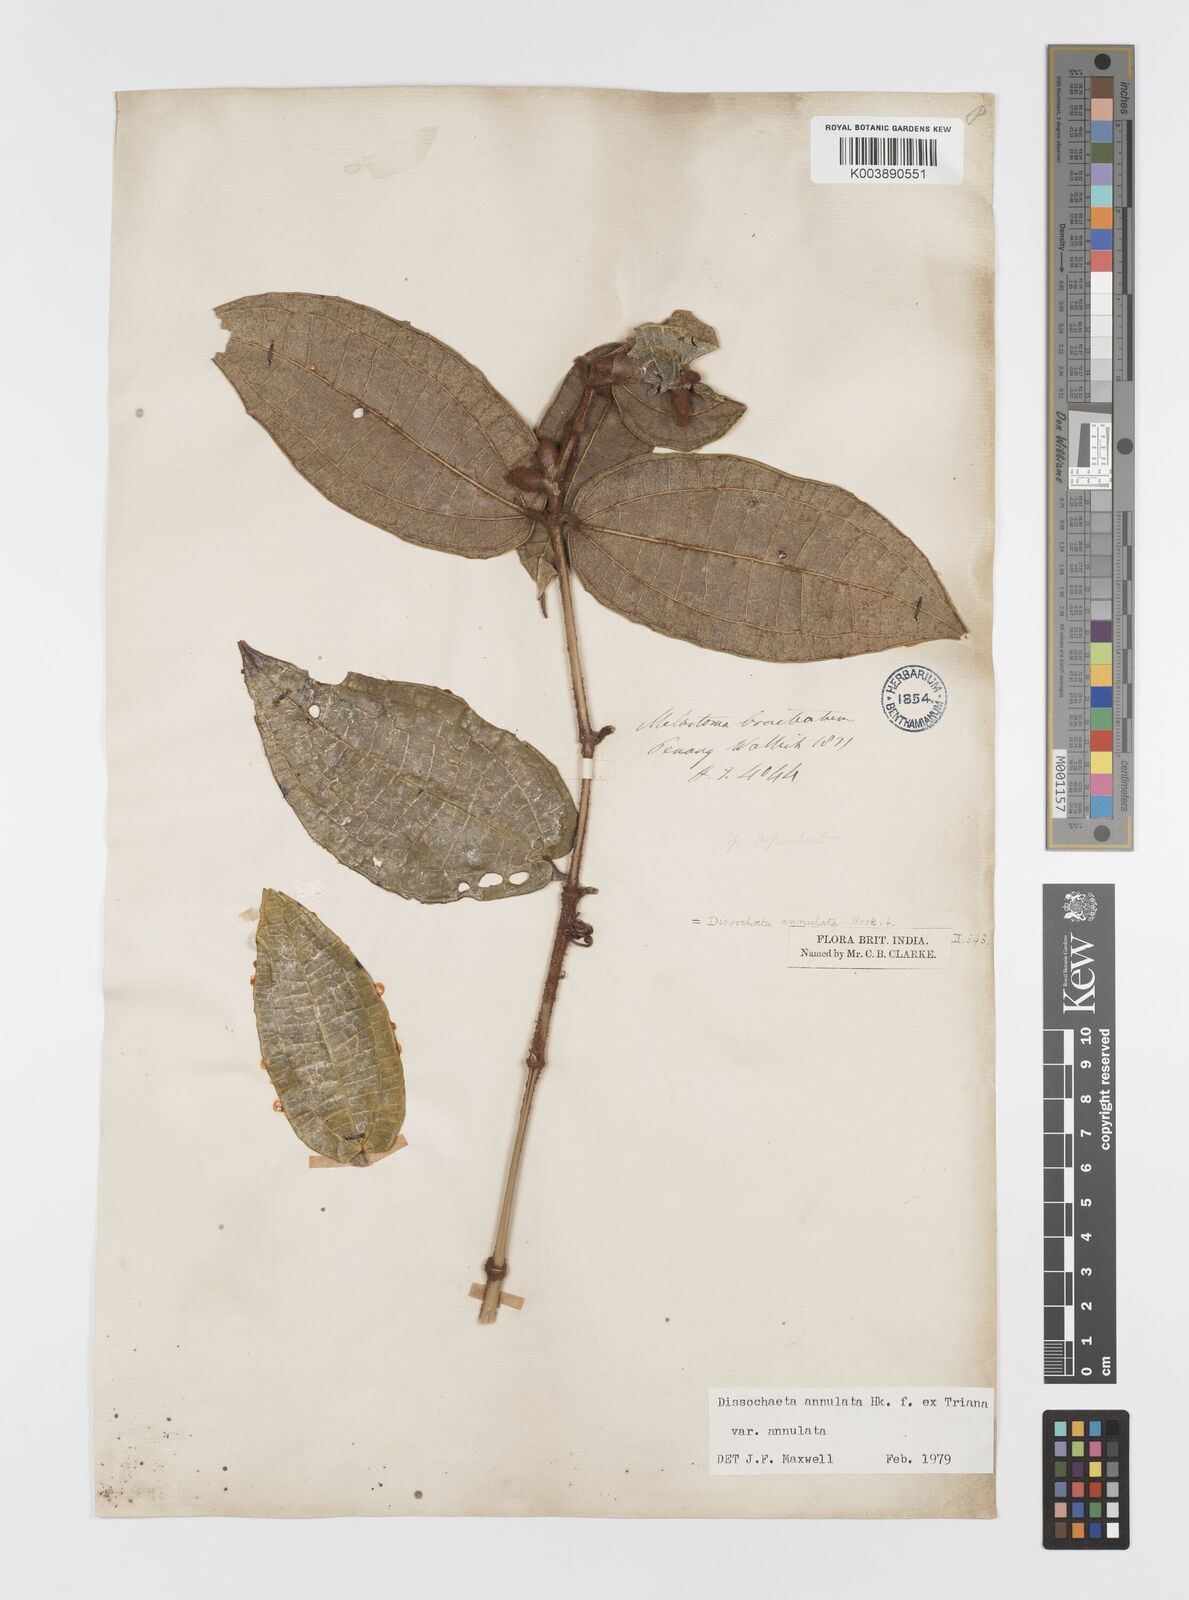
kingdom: Plantae
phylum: Tracheophyta
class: Magnoliopsida
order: Myrtales
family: Melastomataceae
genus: Dissochaeta
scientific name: Dissochaeta annulata
